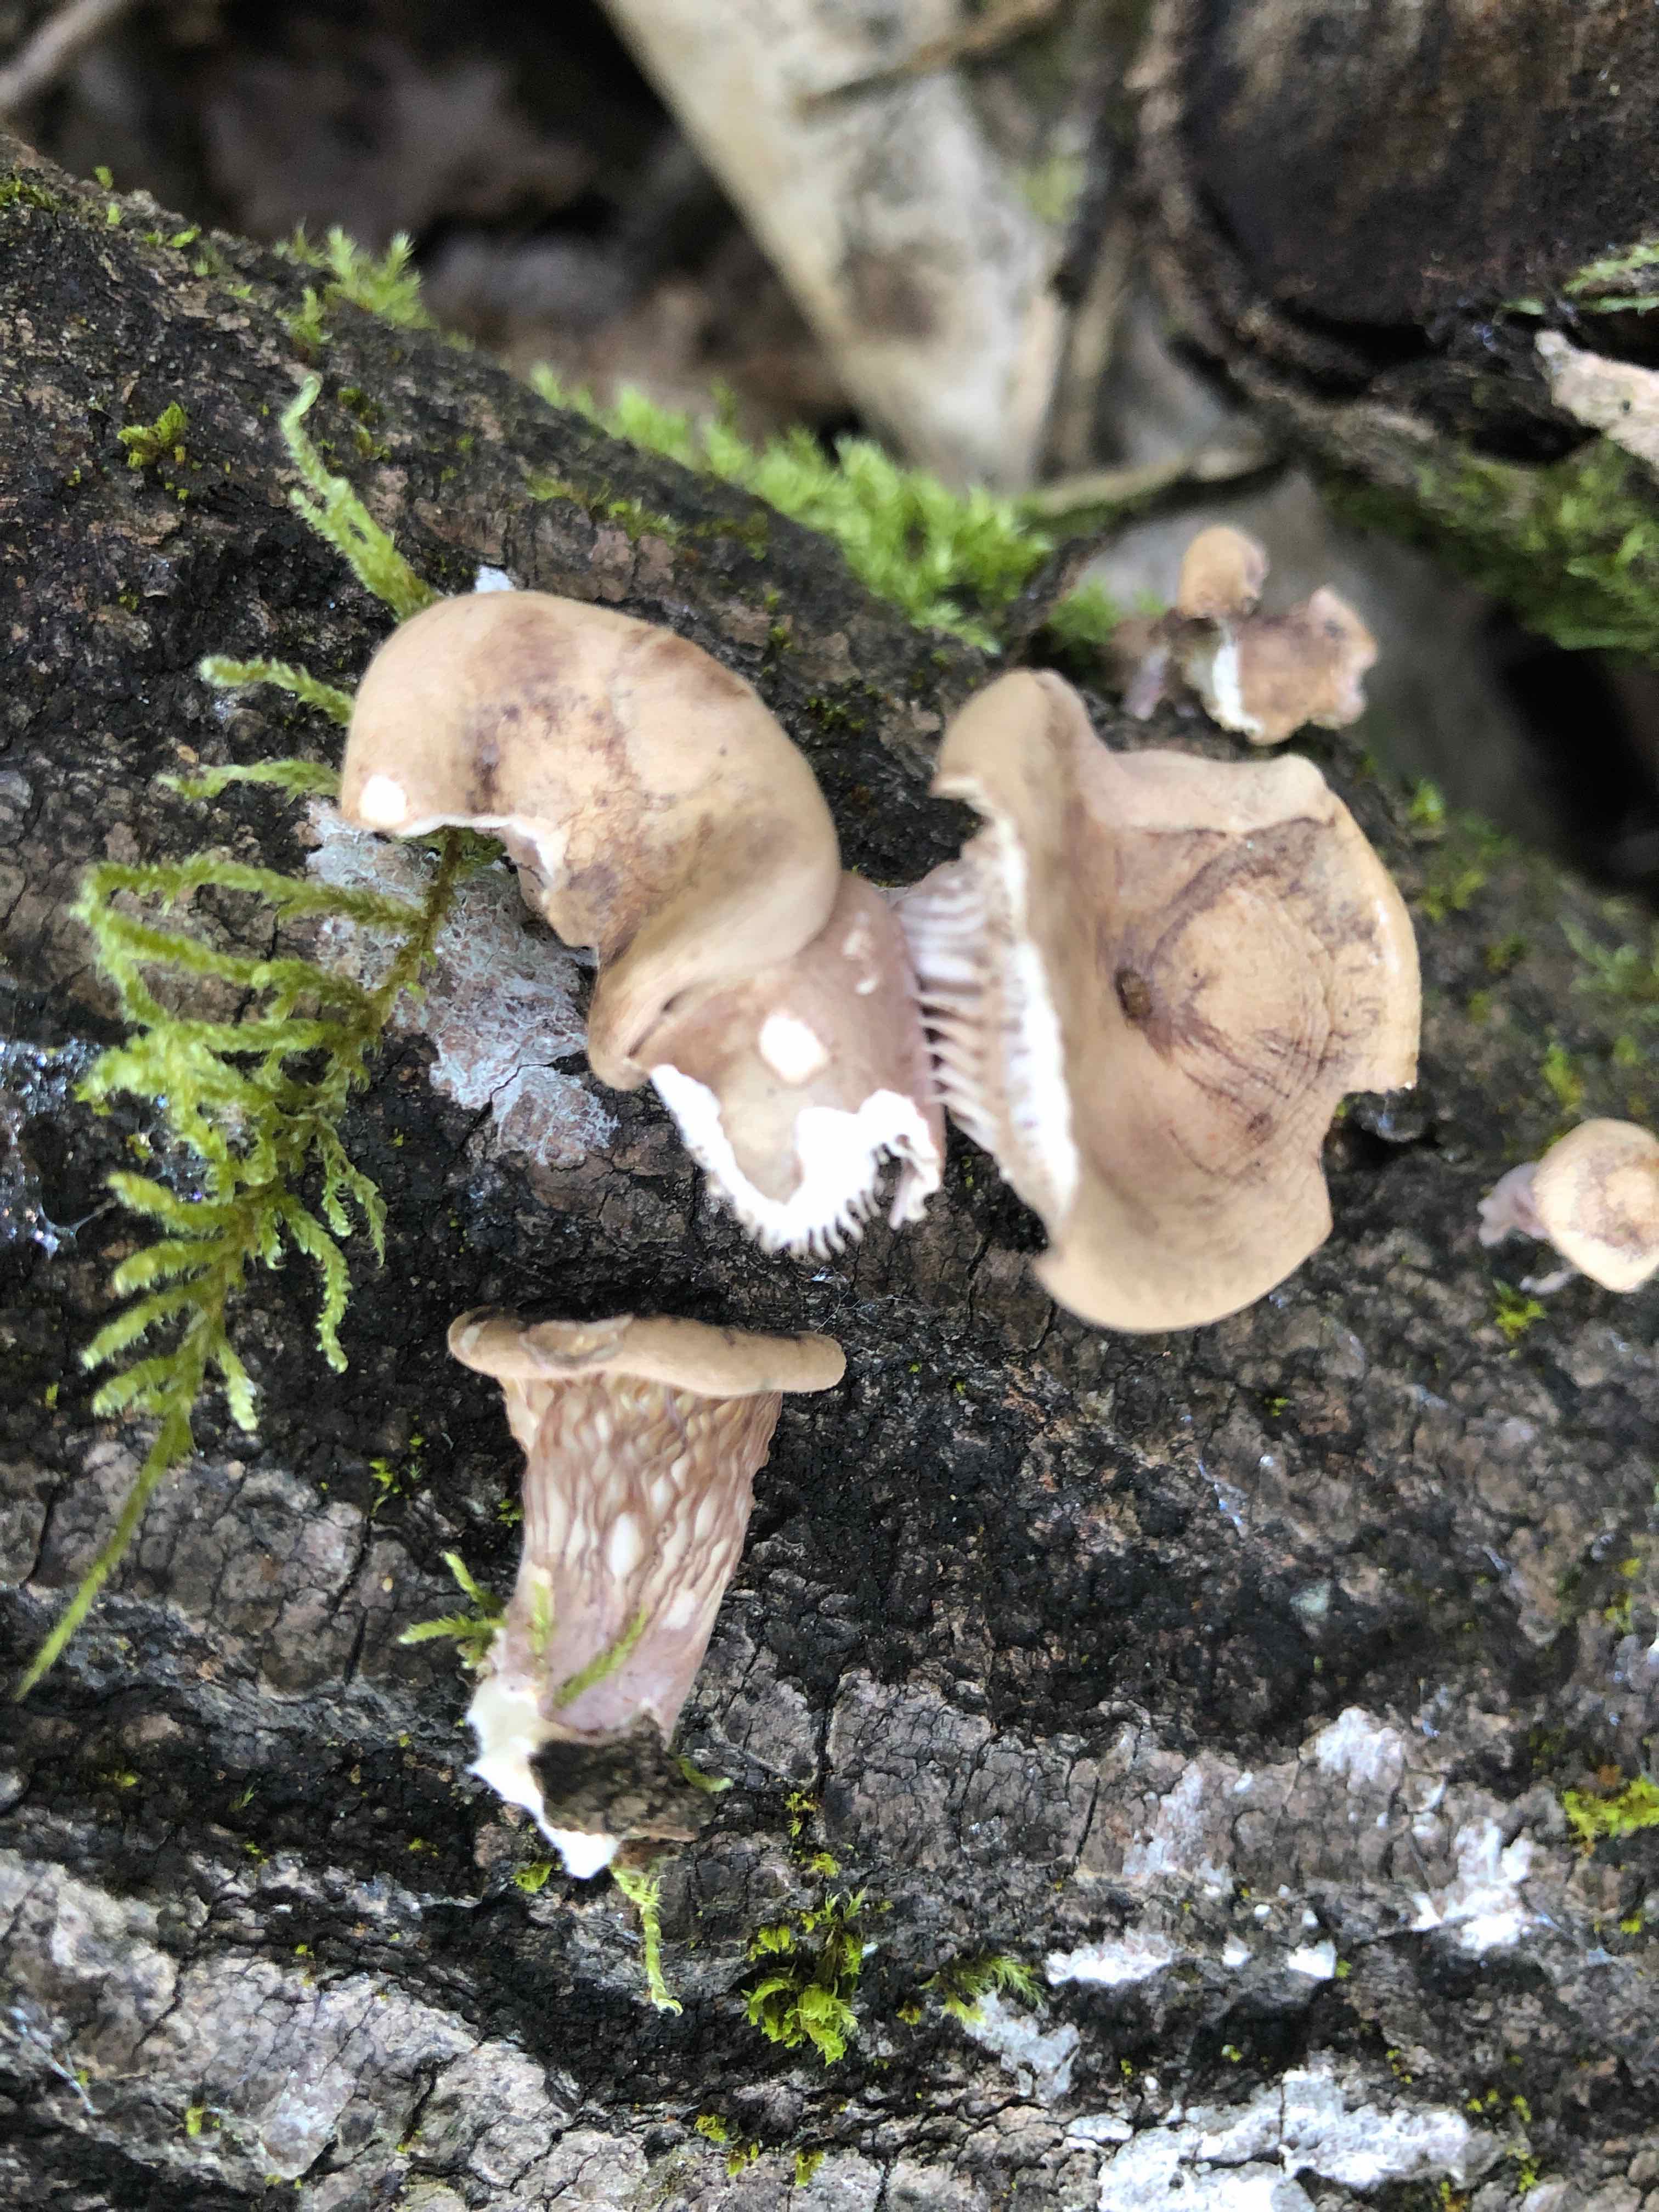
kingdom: Fungi
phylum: Basidiomycota
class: Agaricomycetes
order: Polyporales
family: Panaceae
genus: Panus
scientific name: Panus conchatus
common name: filtstokket læderhat
